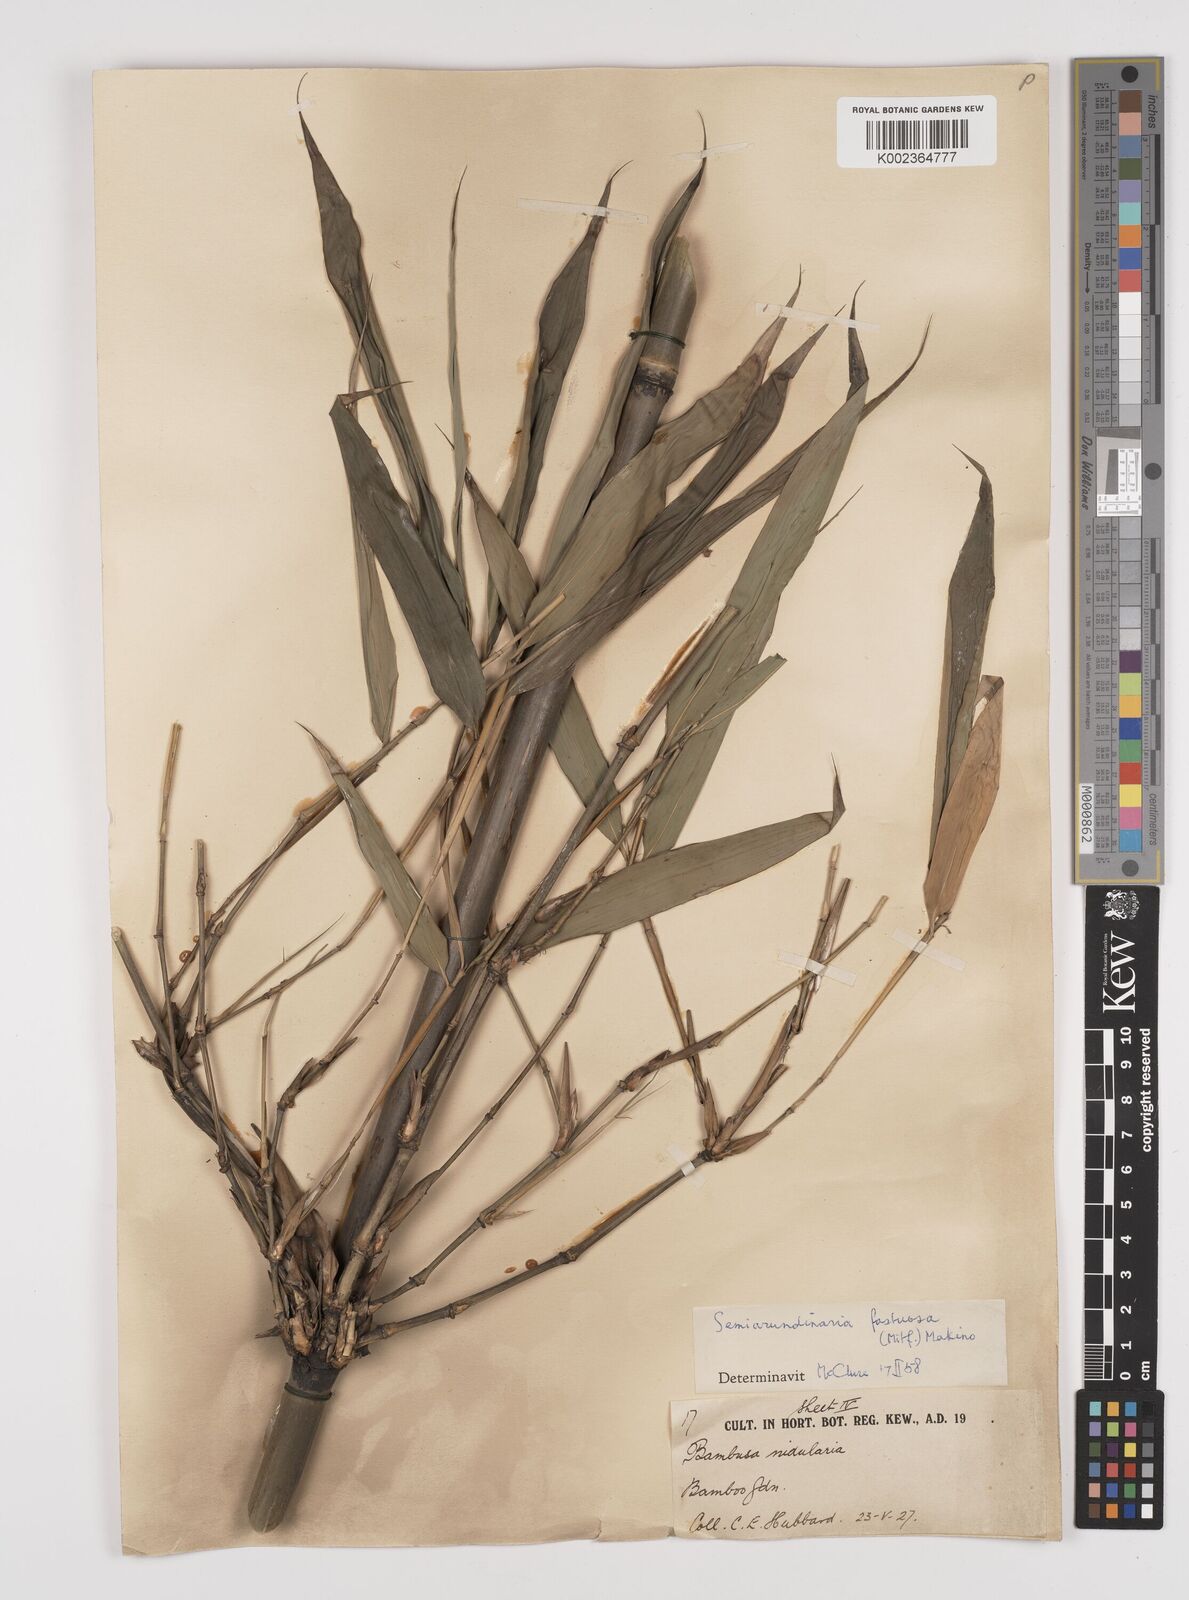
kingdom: Plantae
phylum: Tracheophyta
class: Liliopsida
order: Poales
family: Poaceae
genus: Semiarundinaria
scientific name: Semiarundinaria fastuosa
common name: Narihira bamboo
